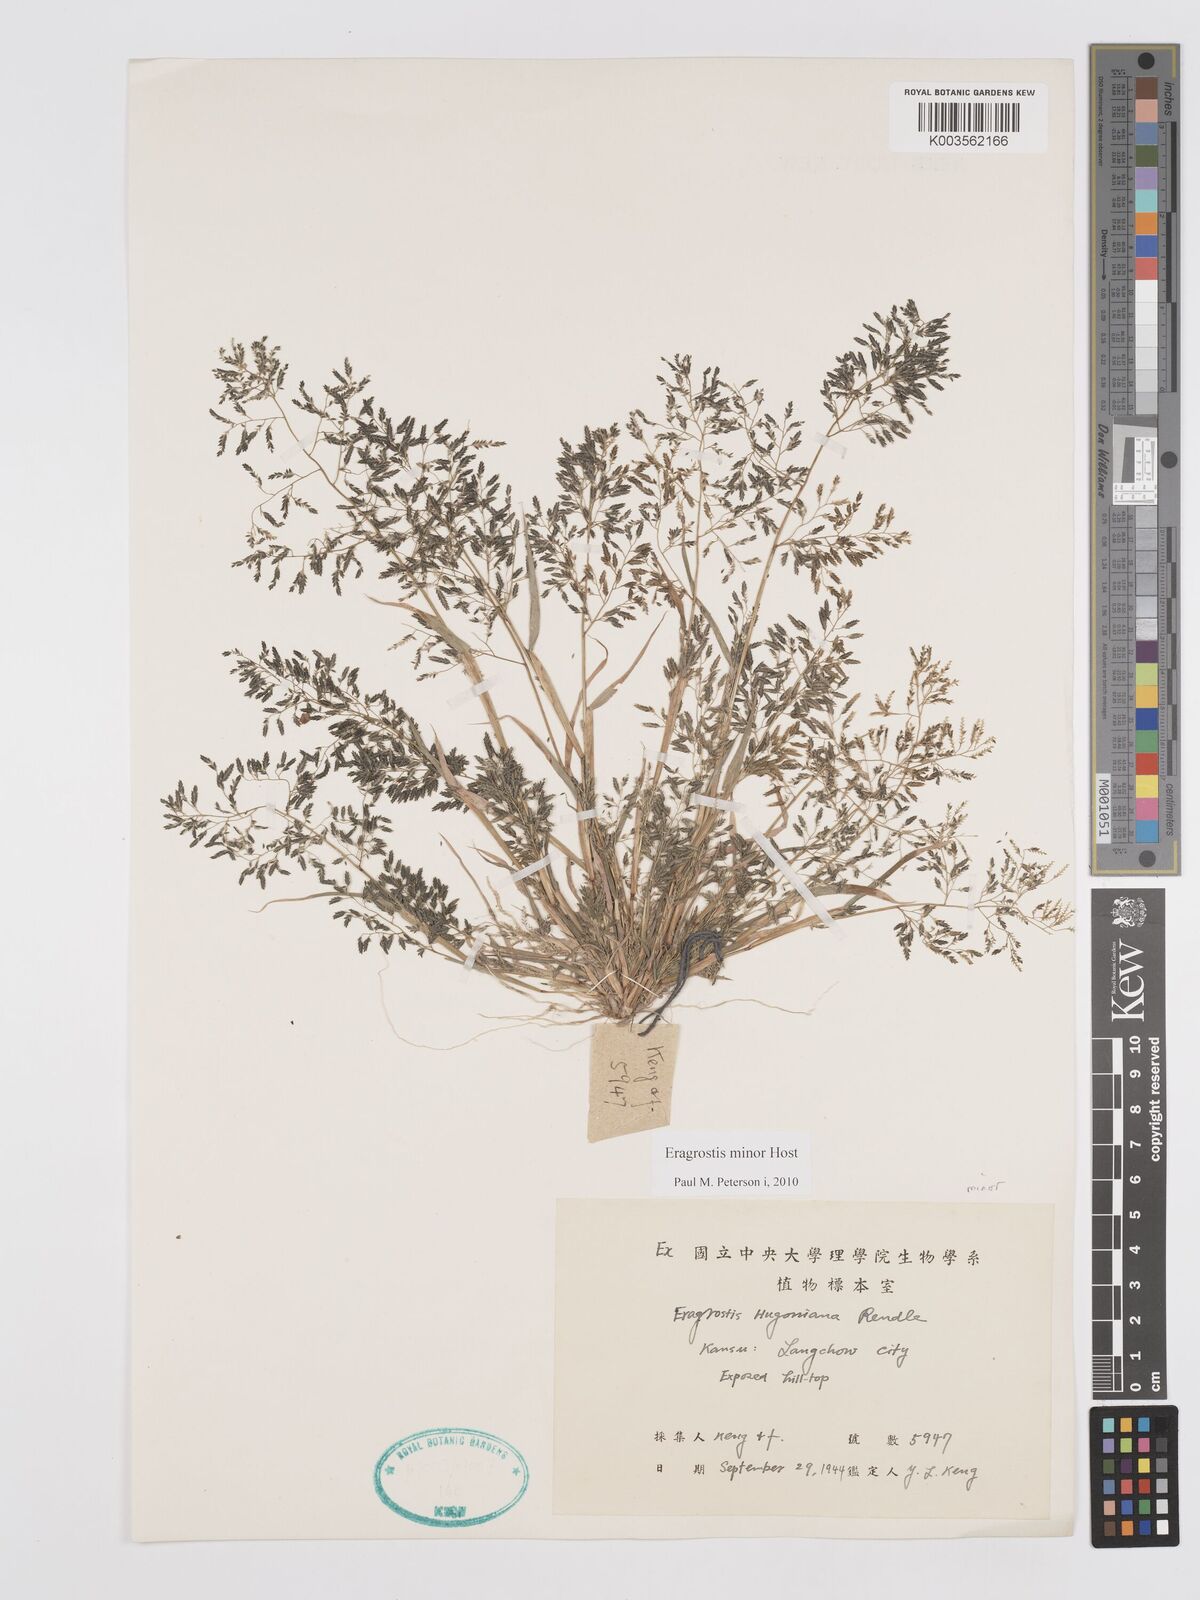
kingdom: Plantae
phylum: Tracheophyta
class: Liliopsida
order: Poales
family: Poaceae
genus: Eragrostis
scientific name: Eragrostis minor
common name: Small love-grass
